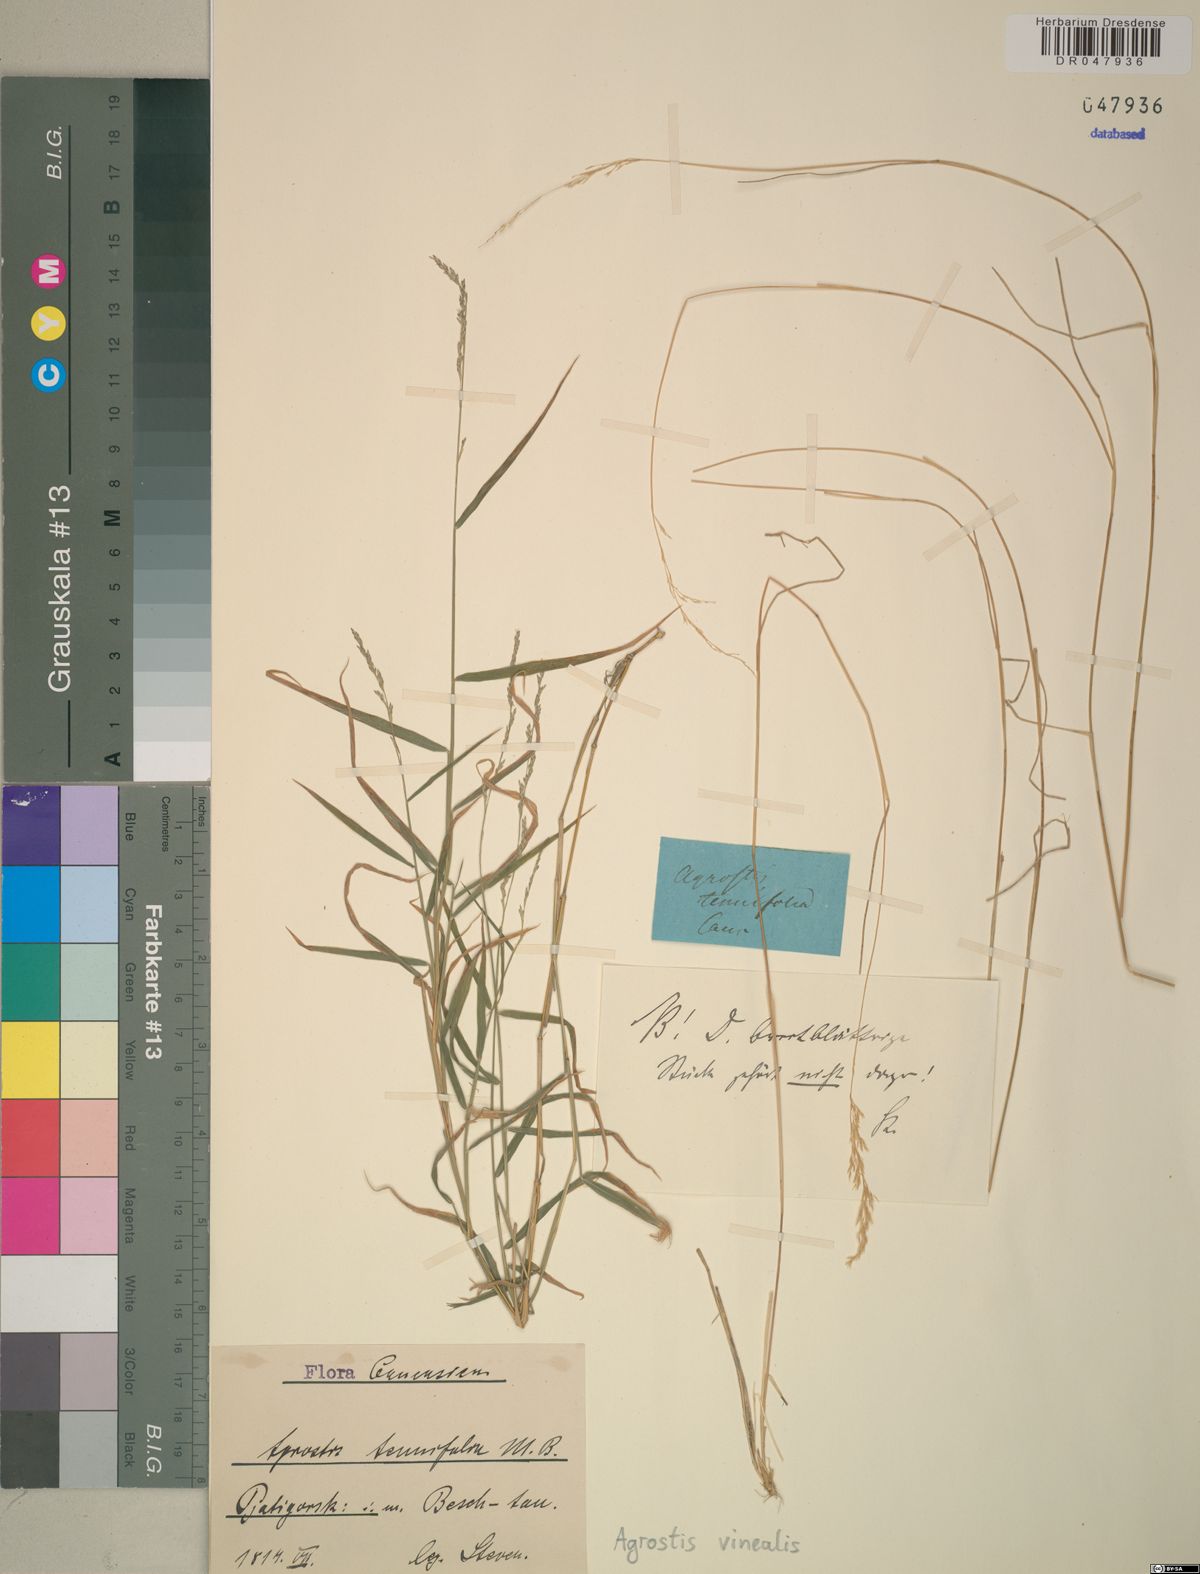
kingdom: Plantae
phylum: Tracheophyta
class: Liliopsida
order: Poales
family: Poaceae
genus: Agrostis
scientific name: Agrostis vinealis
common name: Brown bent
